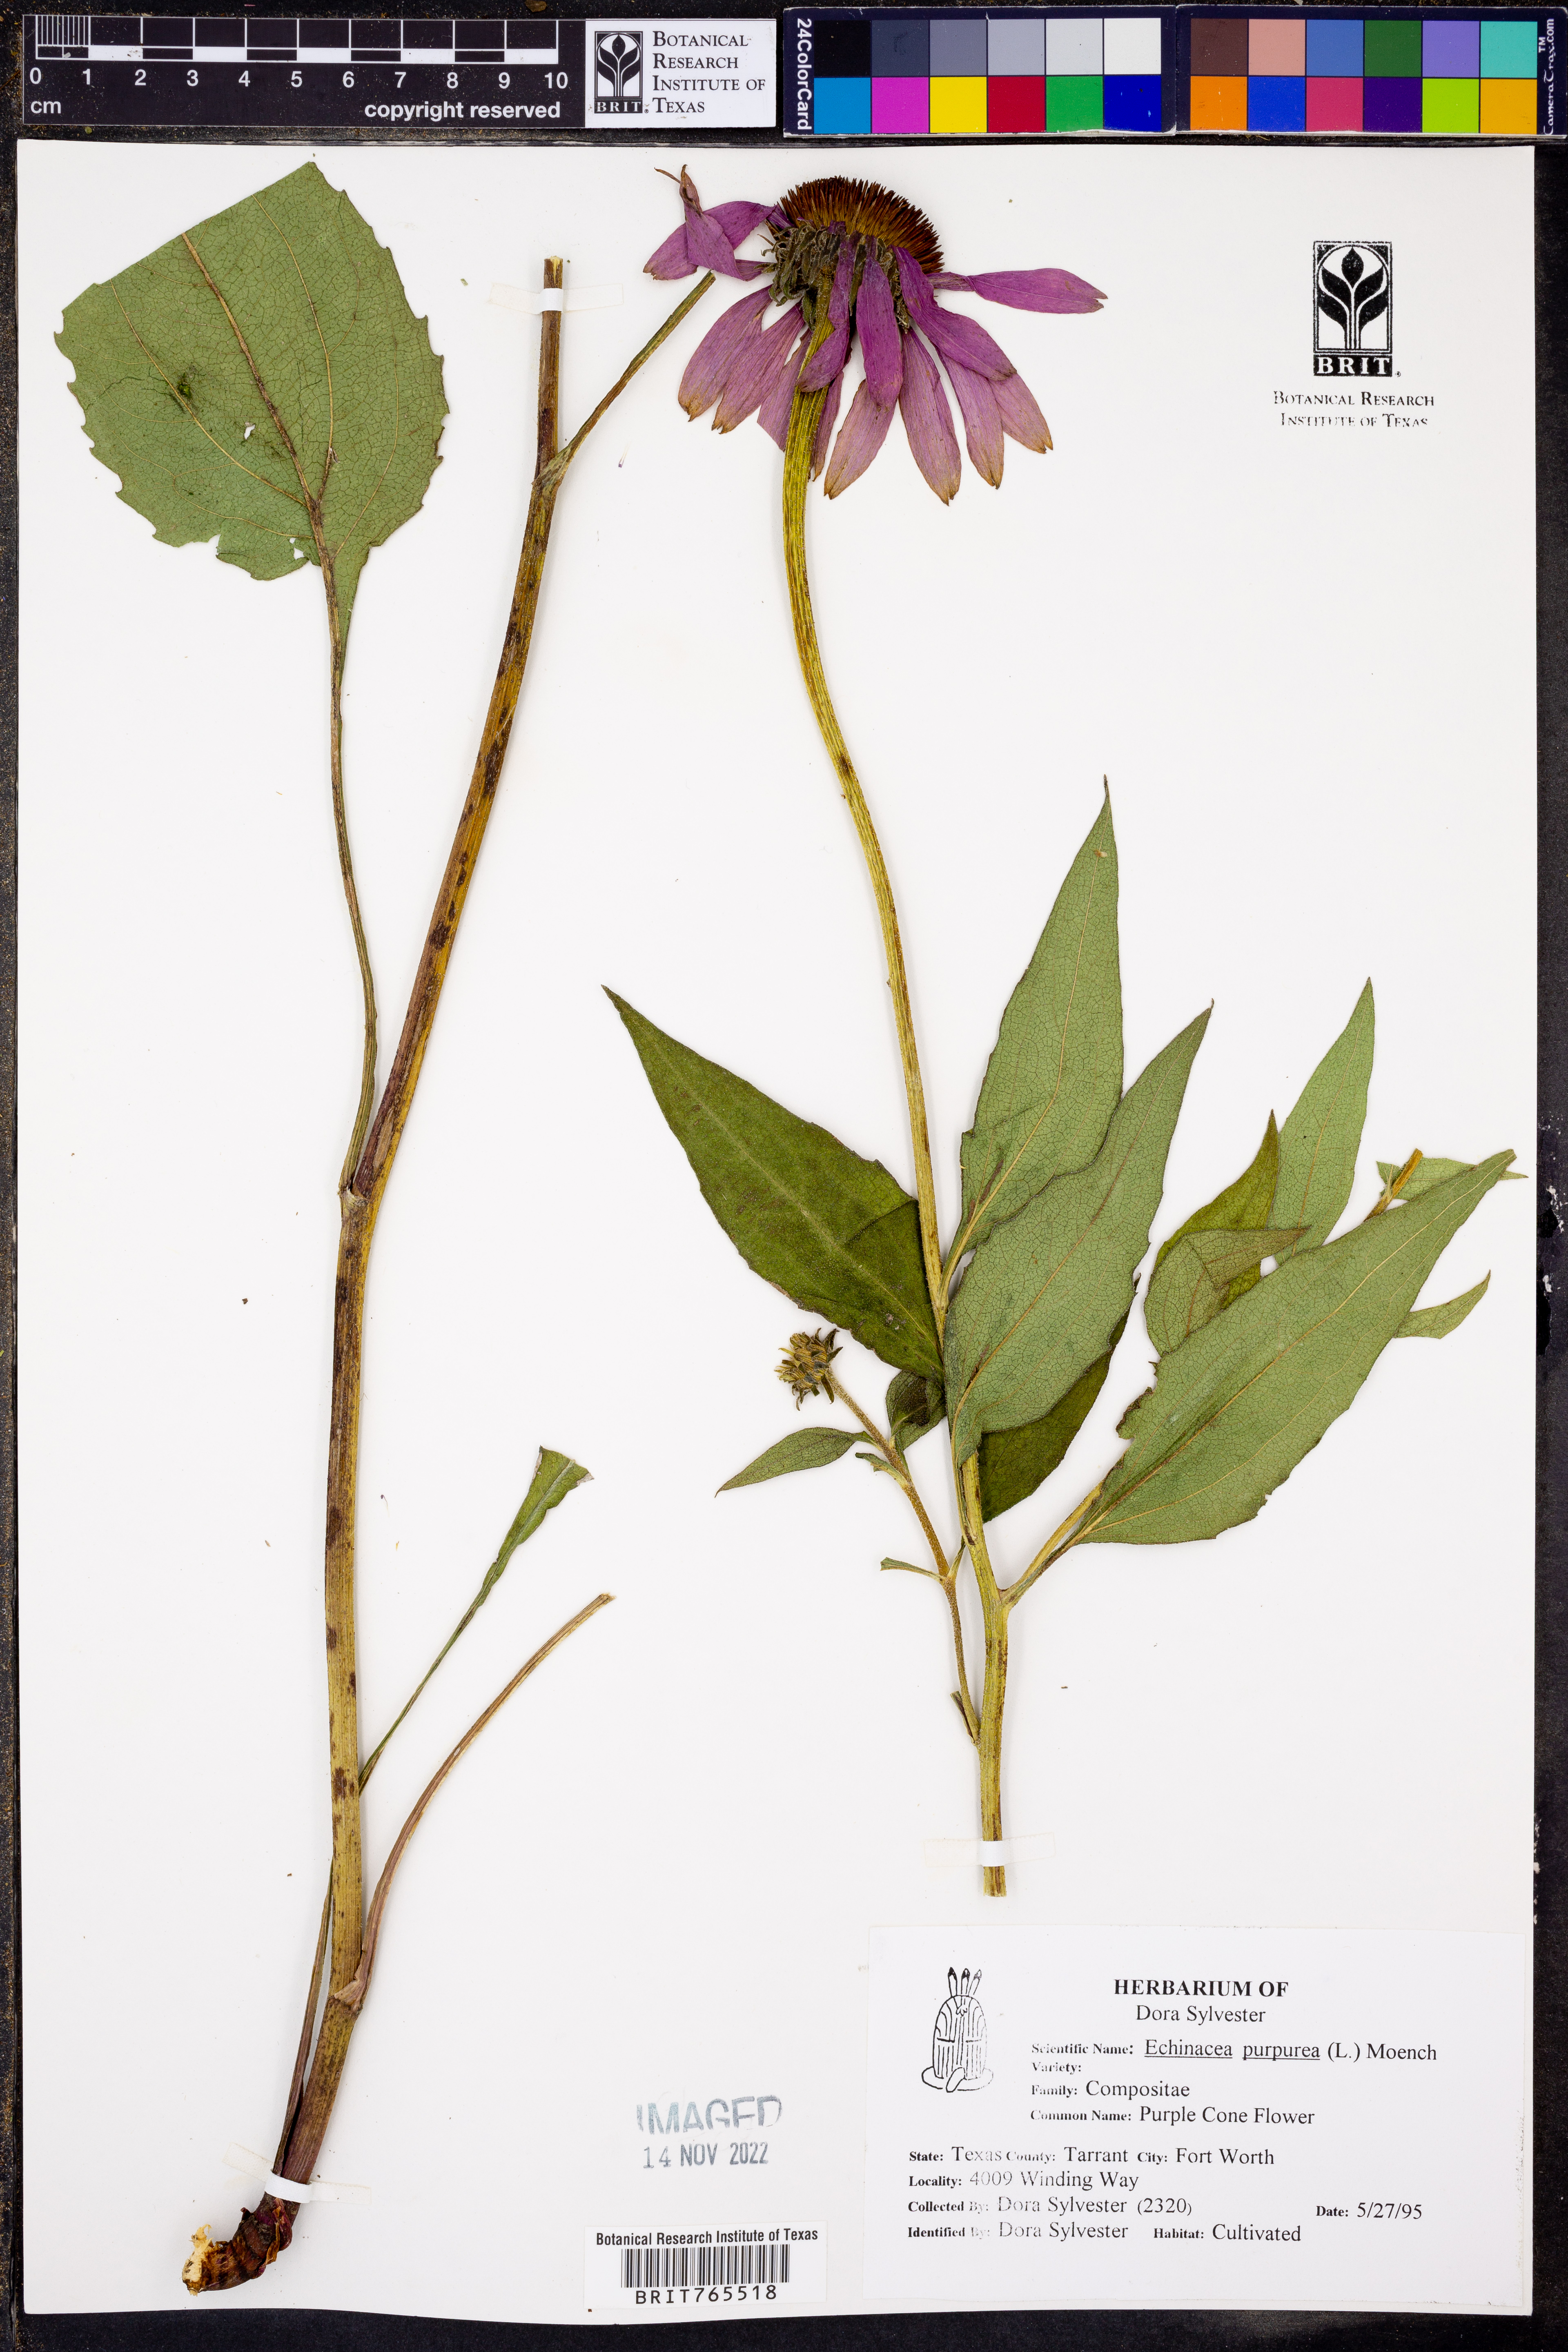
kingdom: Plantae
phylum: Tracheophyta
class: Magnoliopsida
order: Asterales
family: Asteraceae
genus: Echinacea
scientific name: Echinacea purpurea
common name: Broad-leaved purple coneflower
